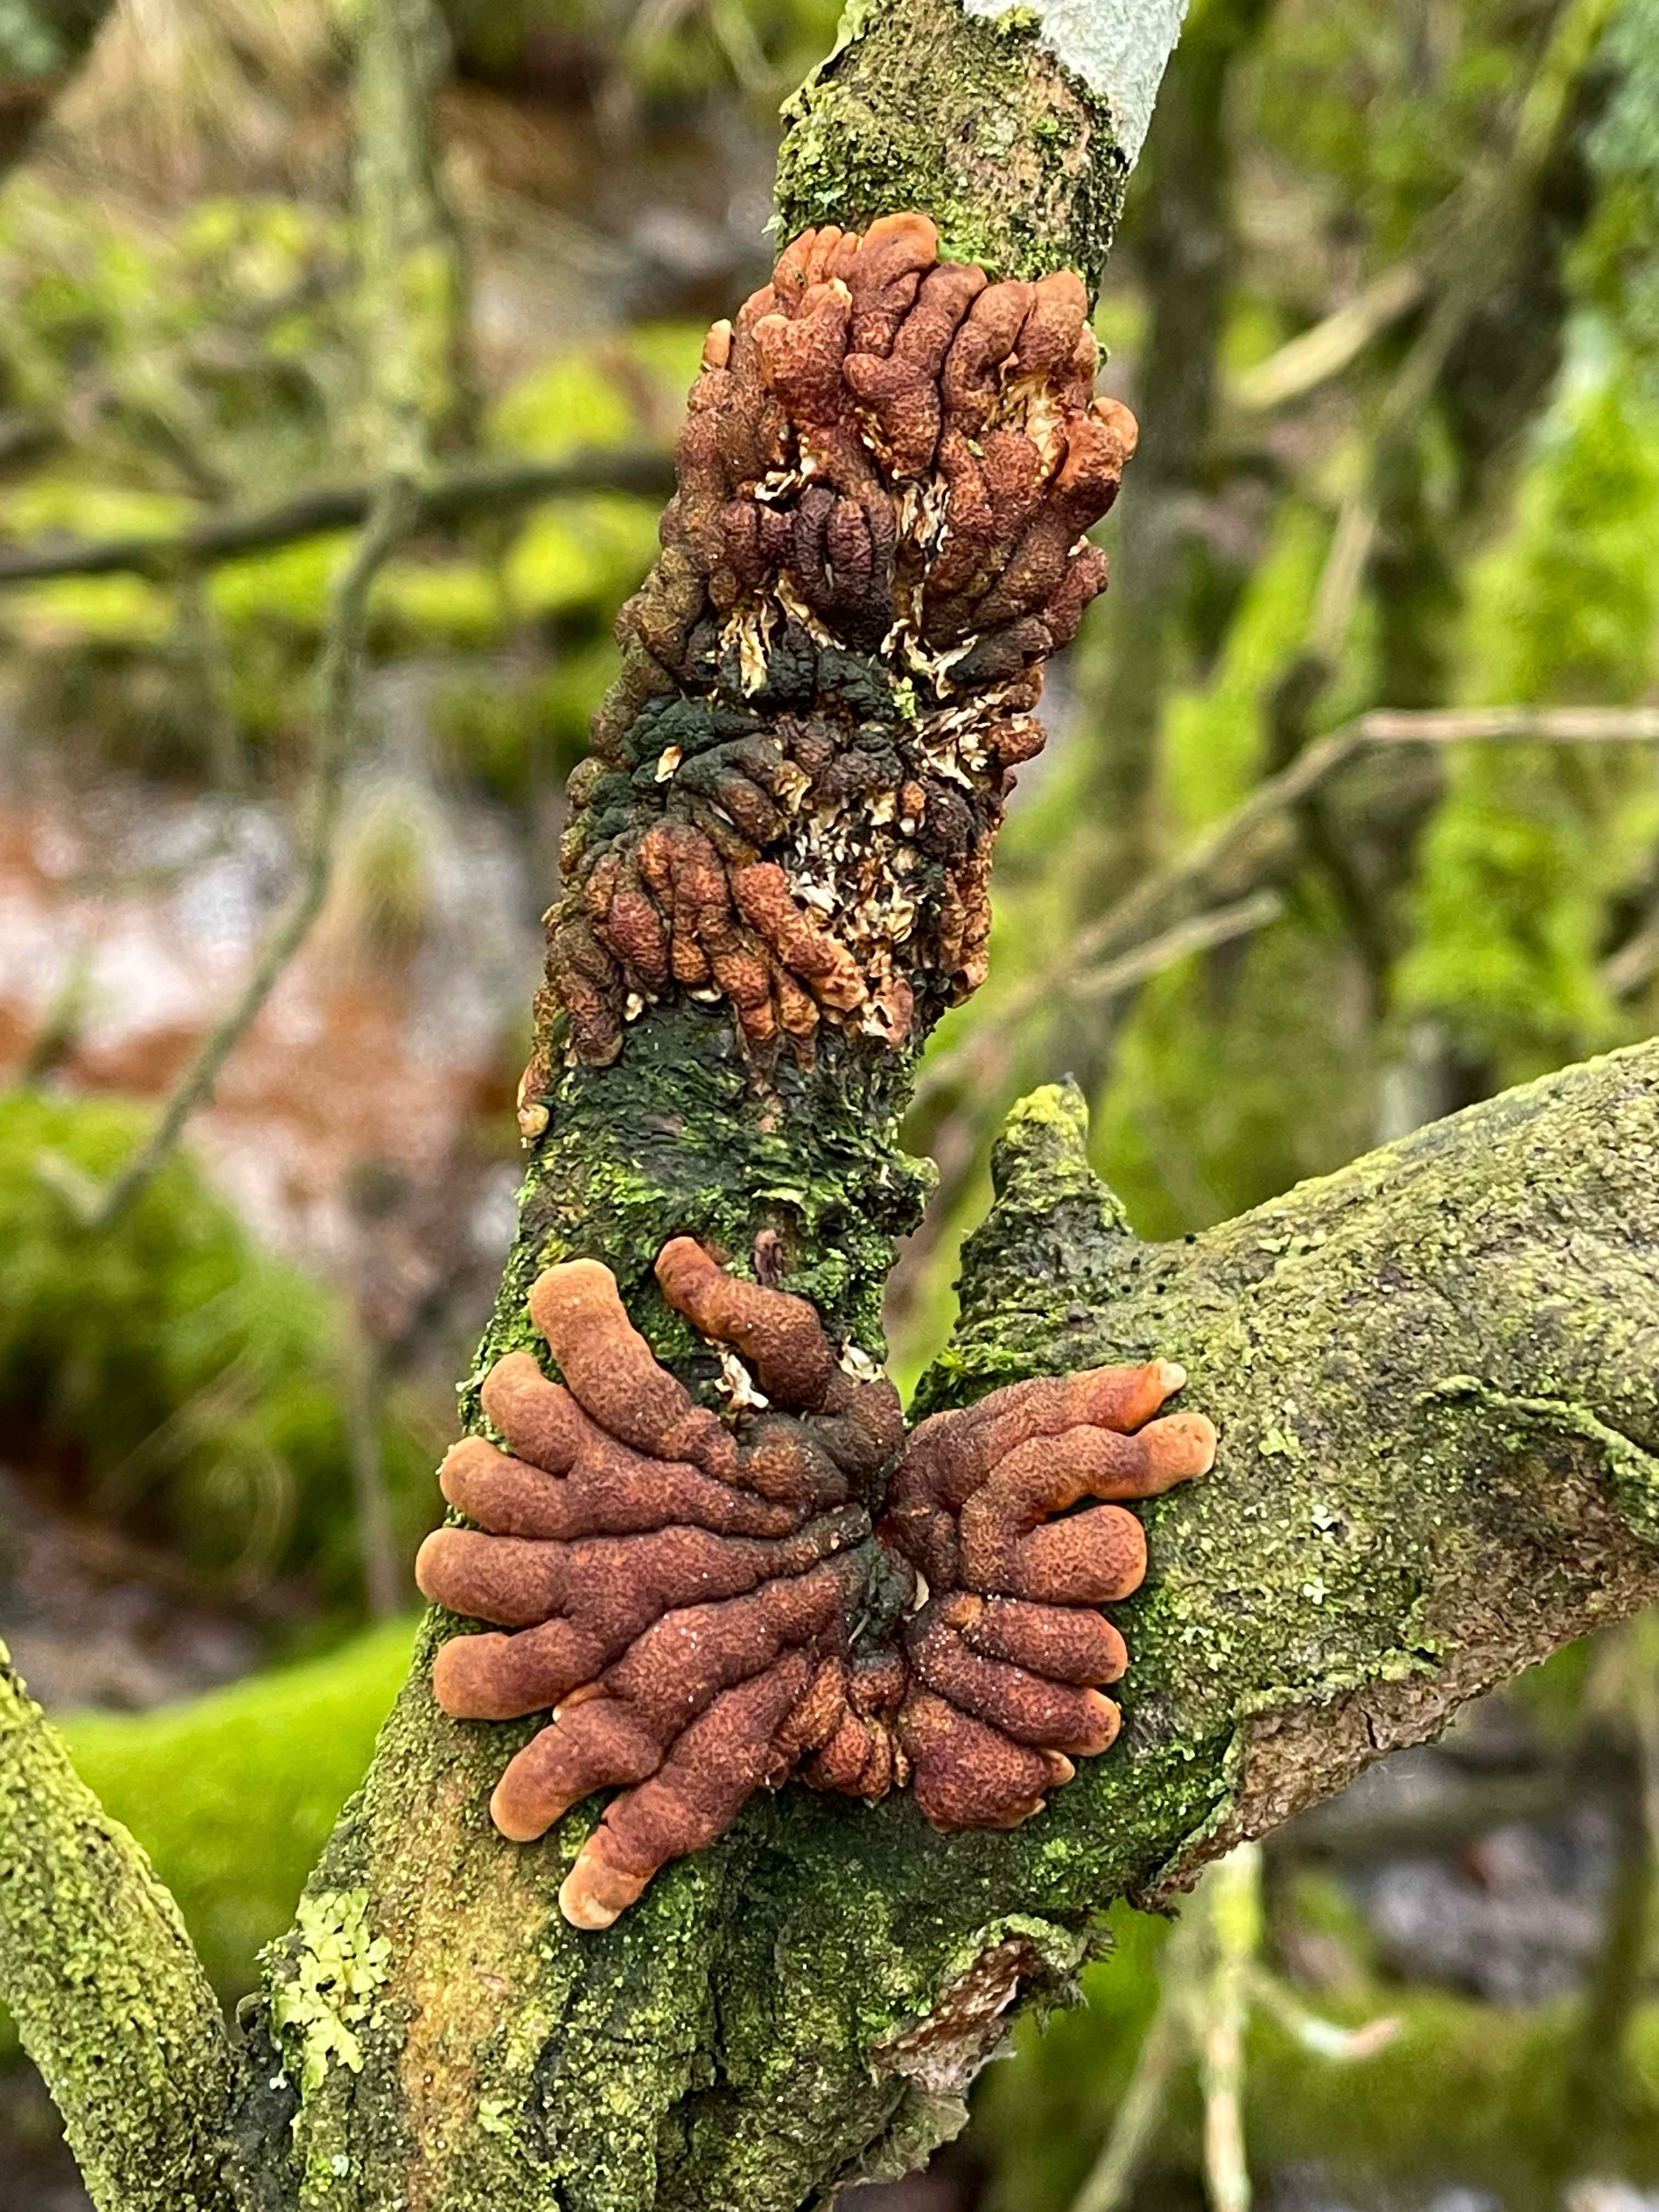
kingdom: Fungi
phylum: Ascomycota
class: Sordariomycetes
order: Hypocreales
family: Hypocreaceae
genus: Hypocreopsis
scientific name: Hypocreopsis lichenoides
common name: pilfinger
